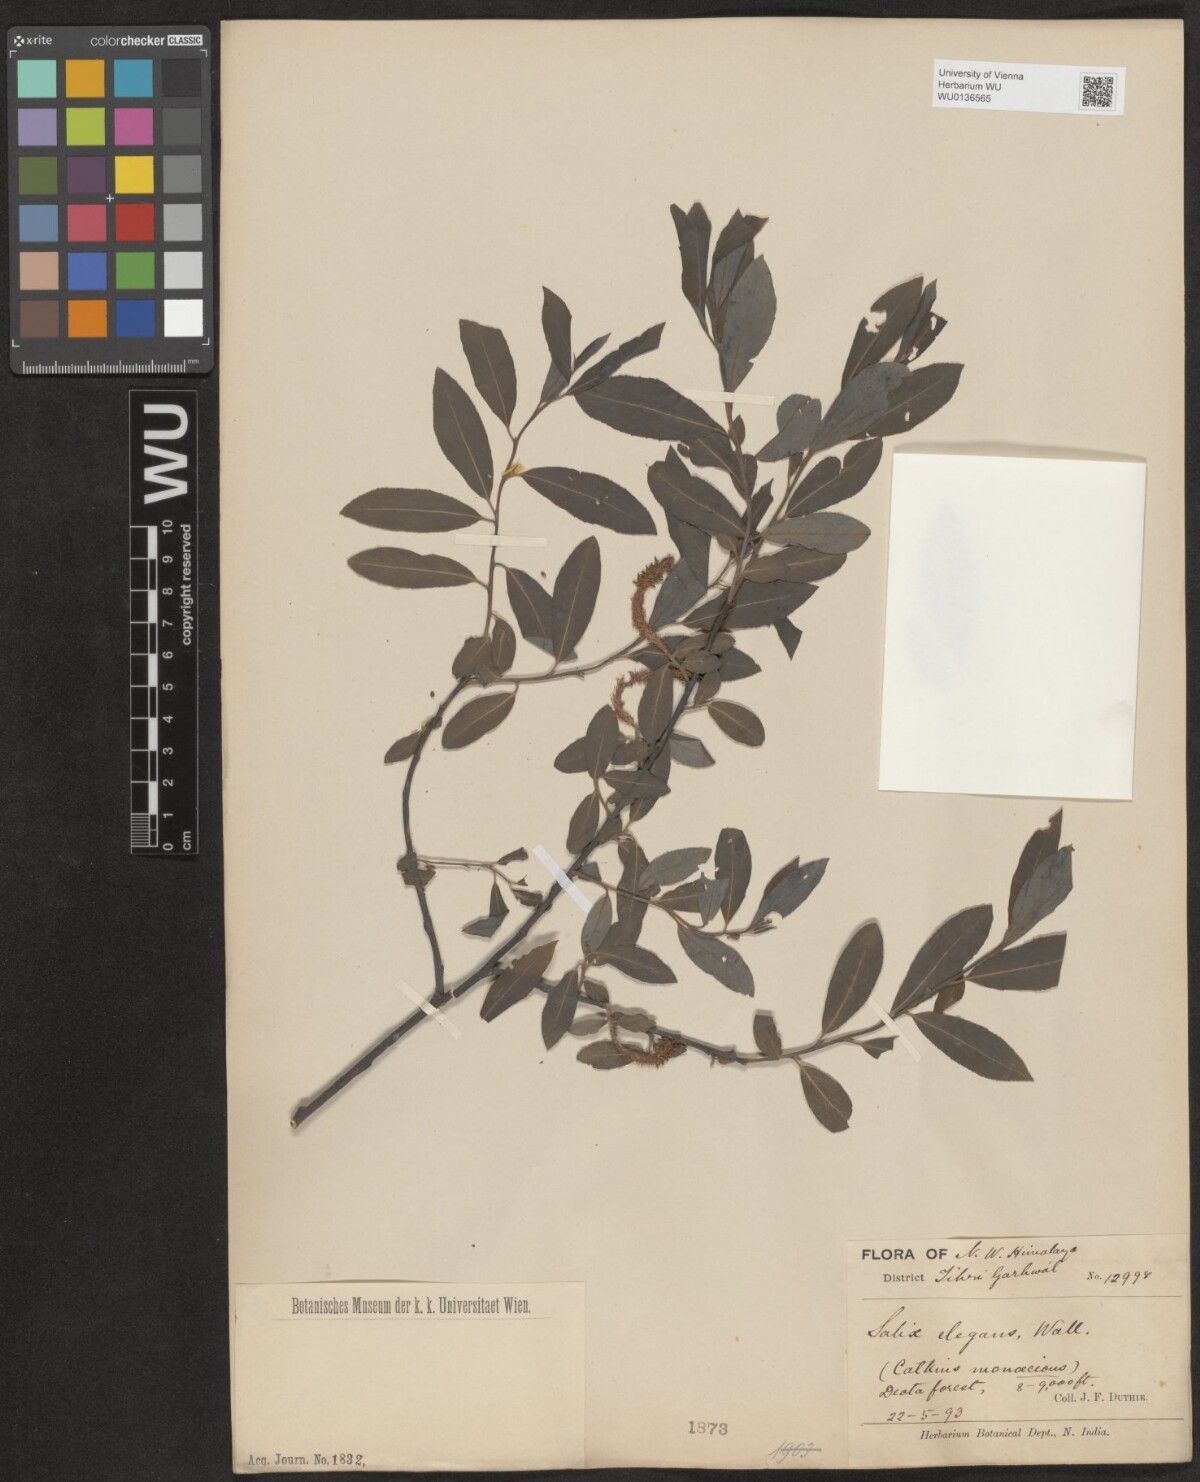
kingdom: Plantae
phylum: Tracheophyta
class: Magnoliopsida
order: Malpighiales
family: Salicaceae
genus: Salix
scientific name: Salix hastata
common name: Halberd willow
